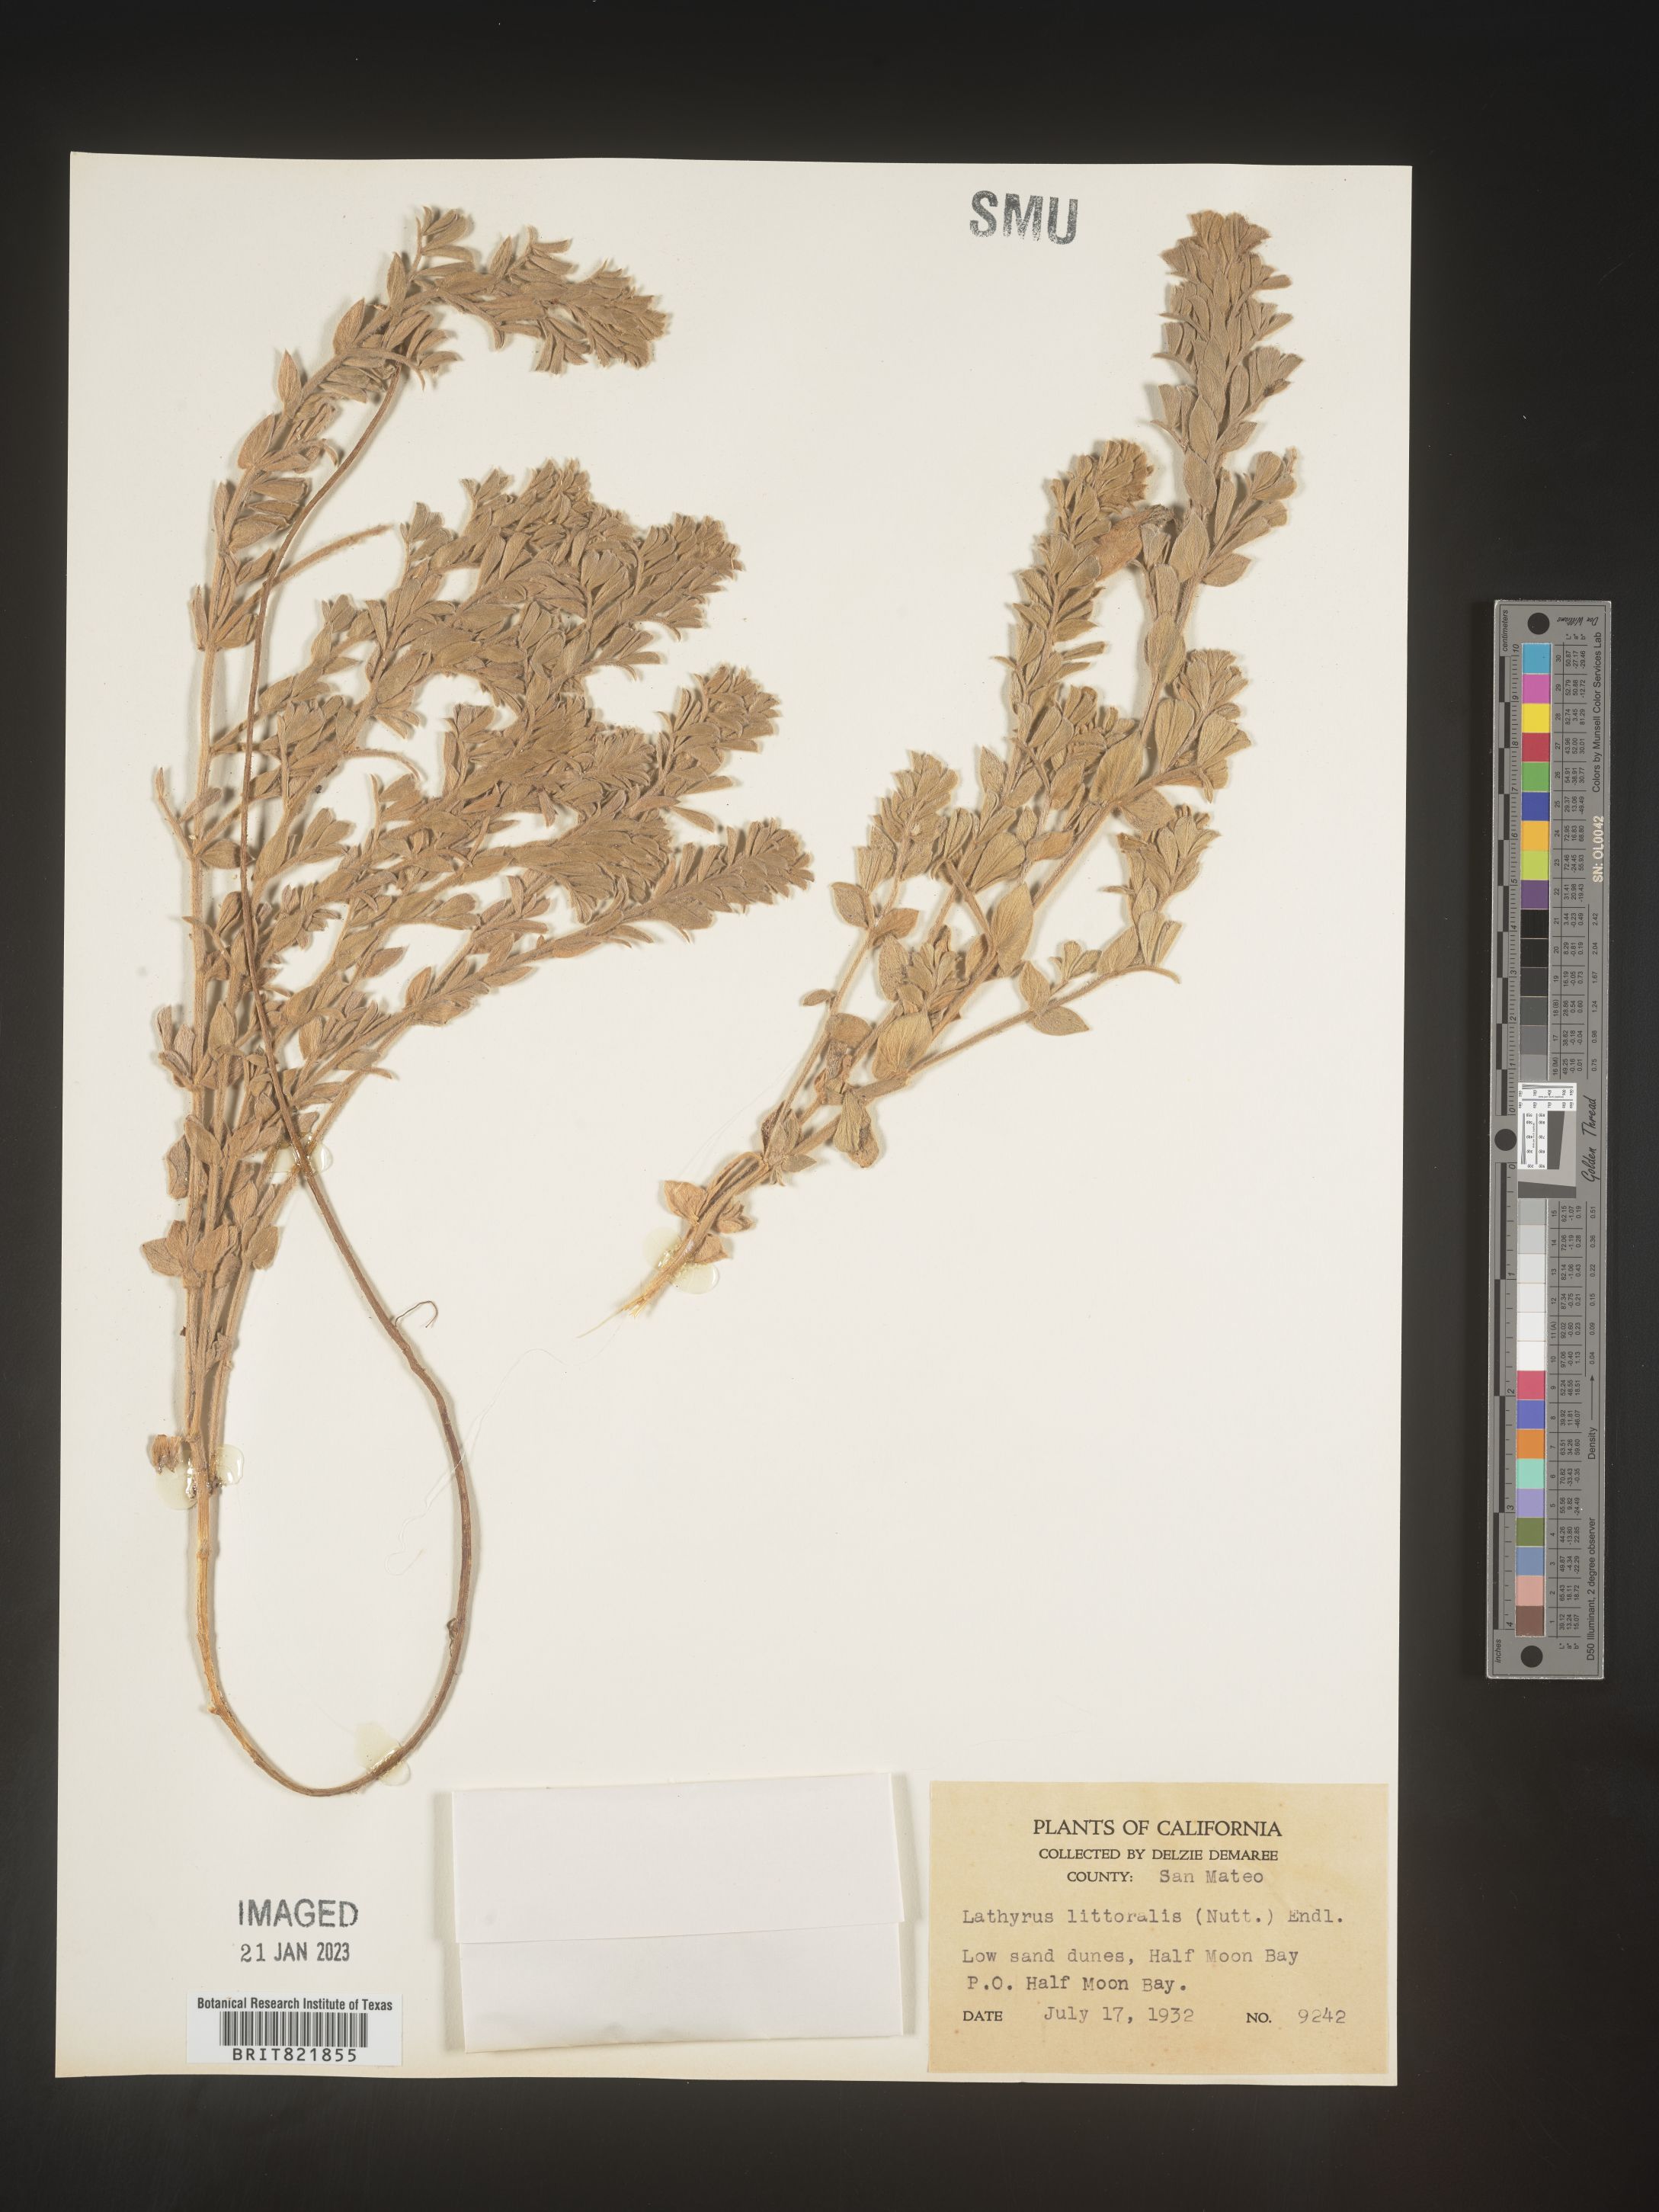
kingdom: Plantae
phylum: Tracheophyta
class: Magnoliopsida
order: Fabales
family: Fabaceae
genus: Lathyrus
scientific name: Lathyrus
